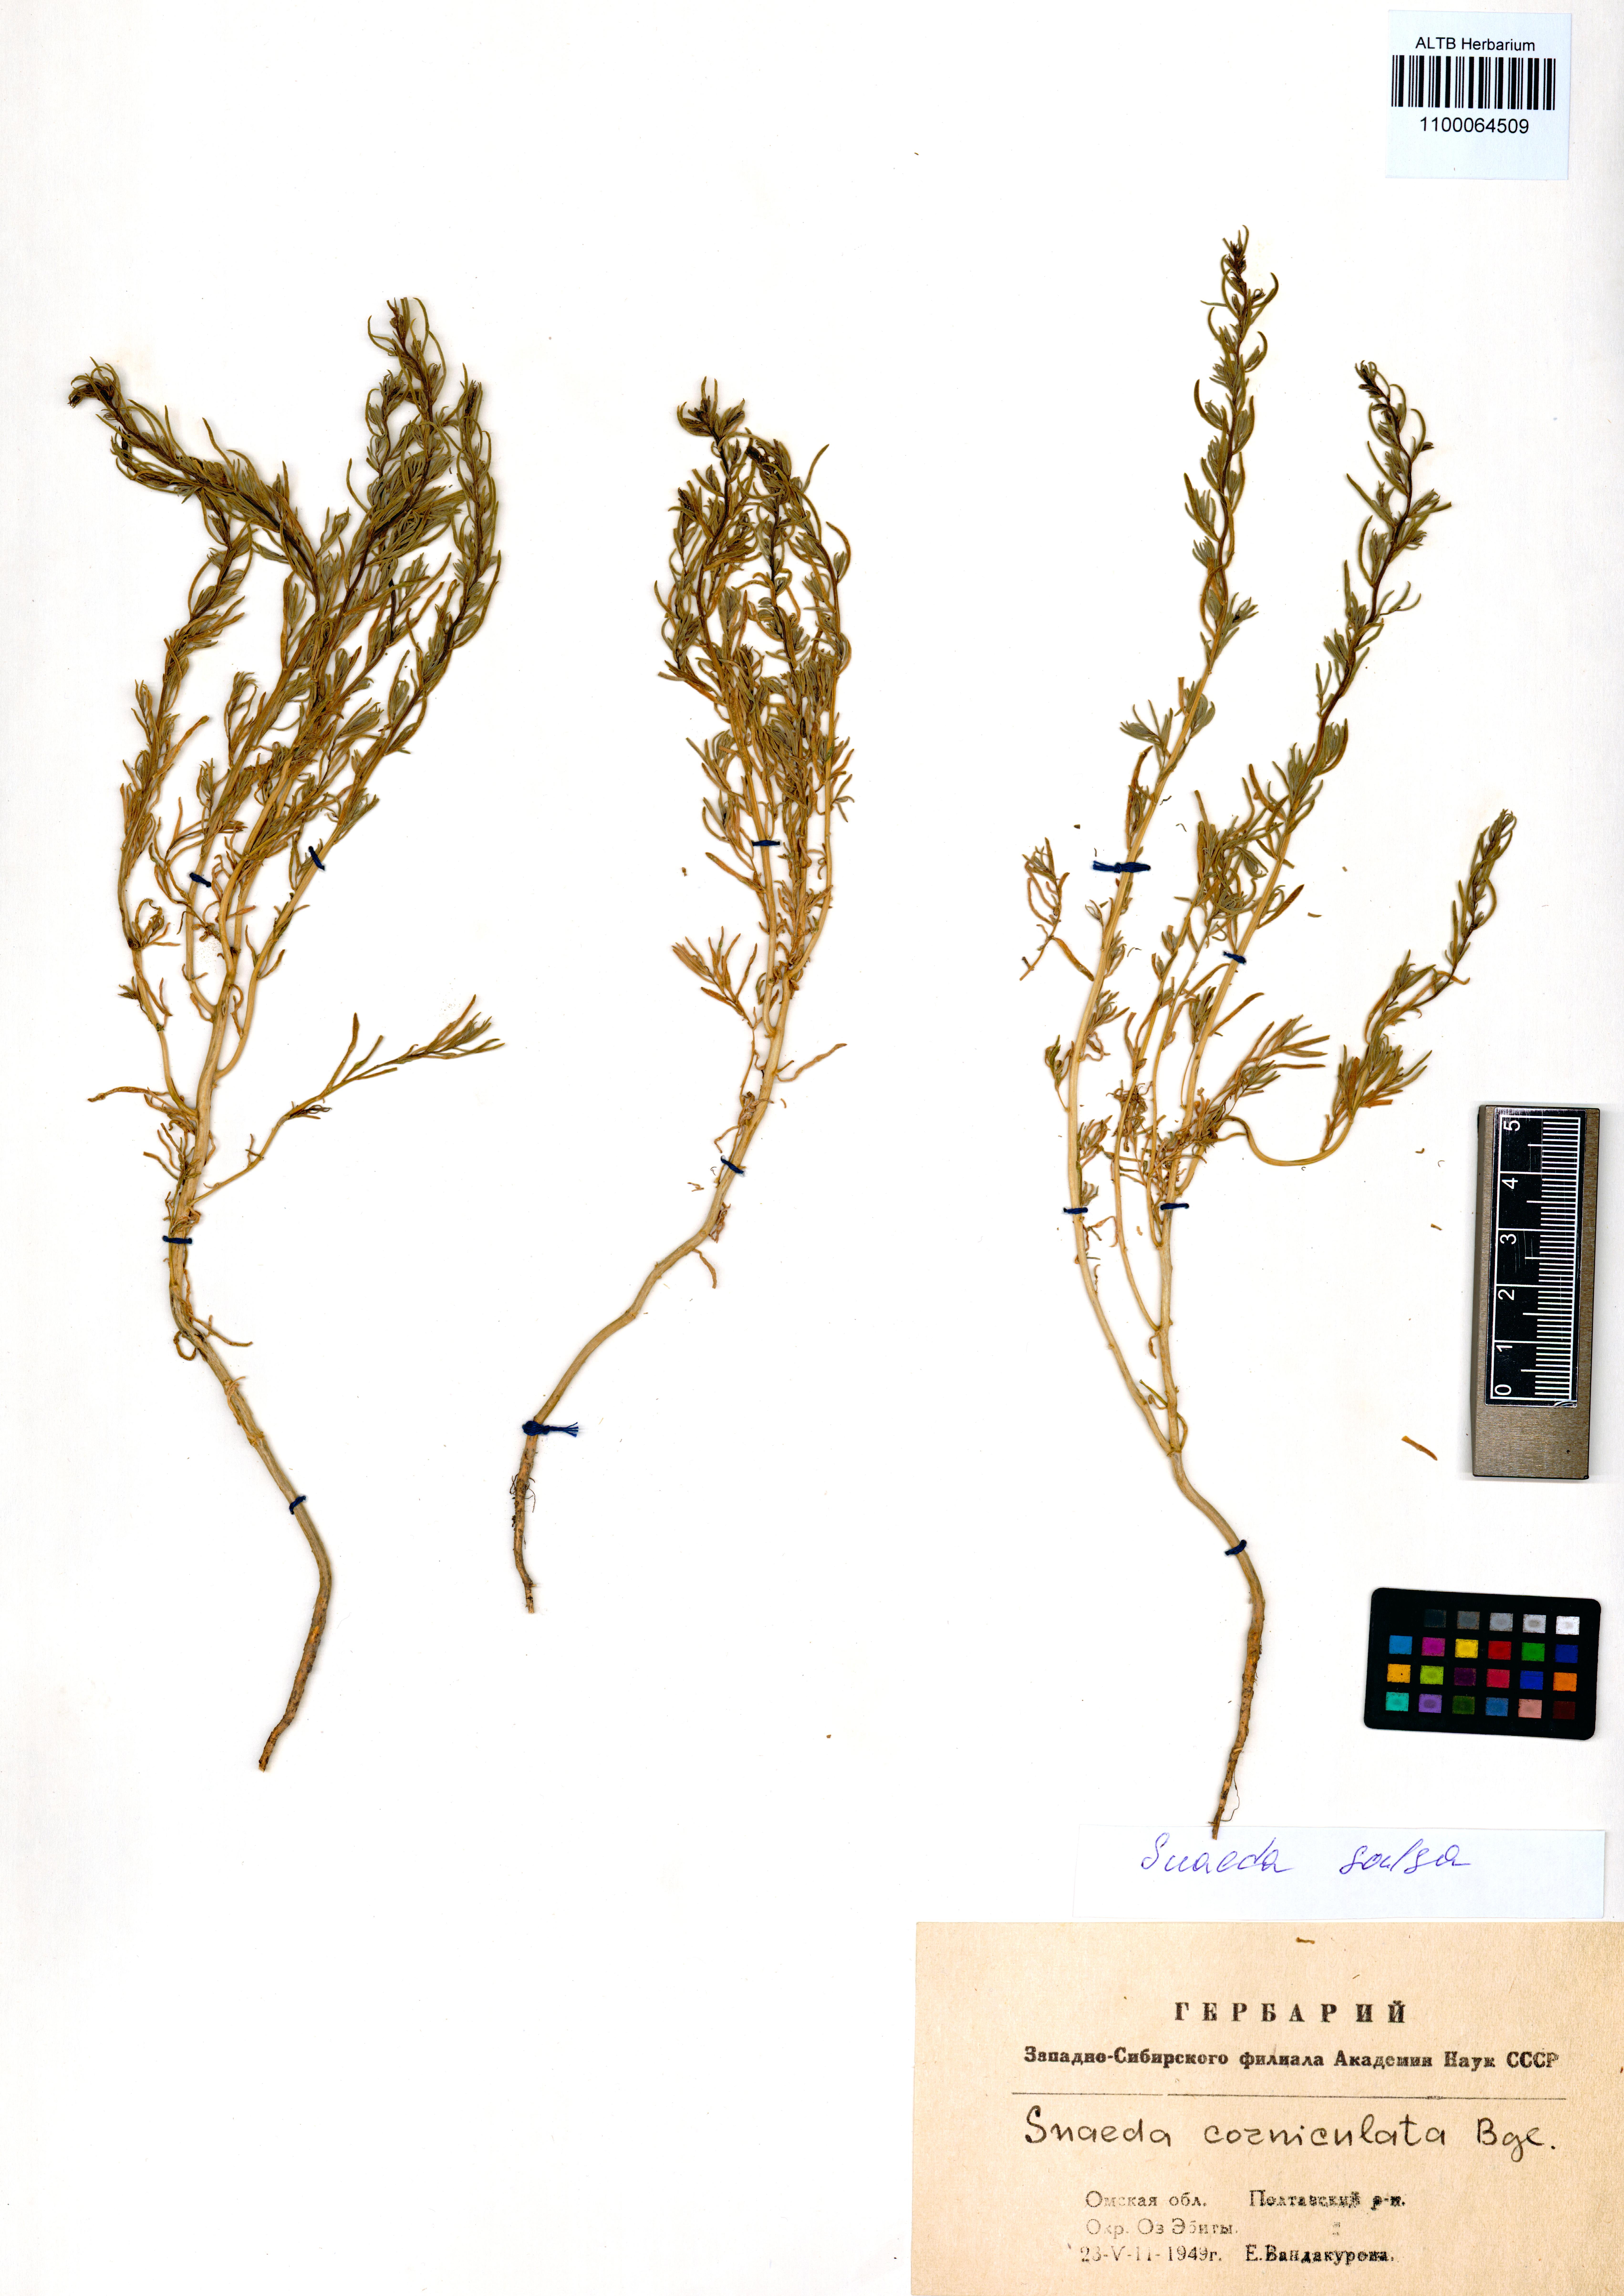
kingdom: Plantae
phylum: Tracheophyta
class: Magnoliopsida
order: Caryophyllales
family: Amaranthaceae
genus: Suaeda
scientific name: Suaeda salsa
